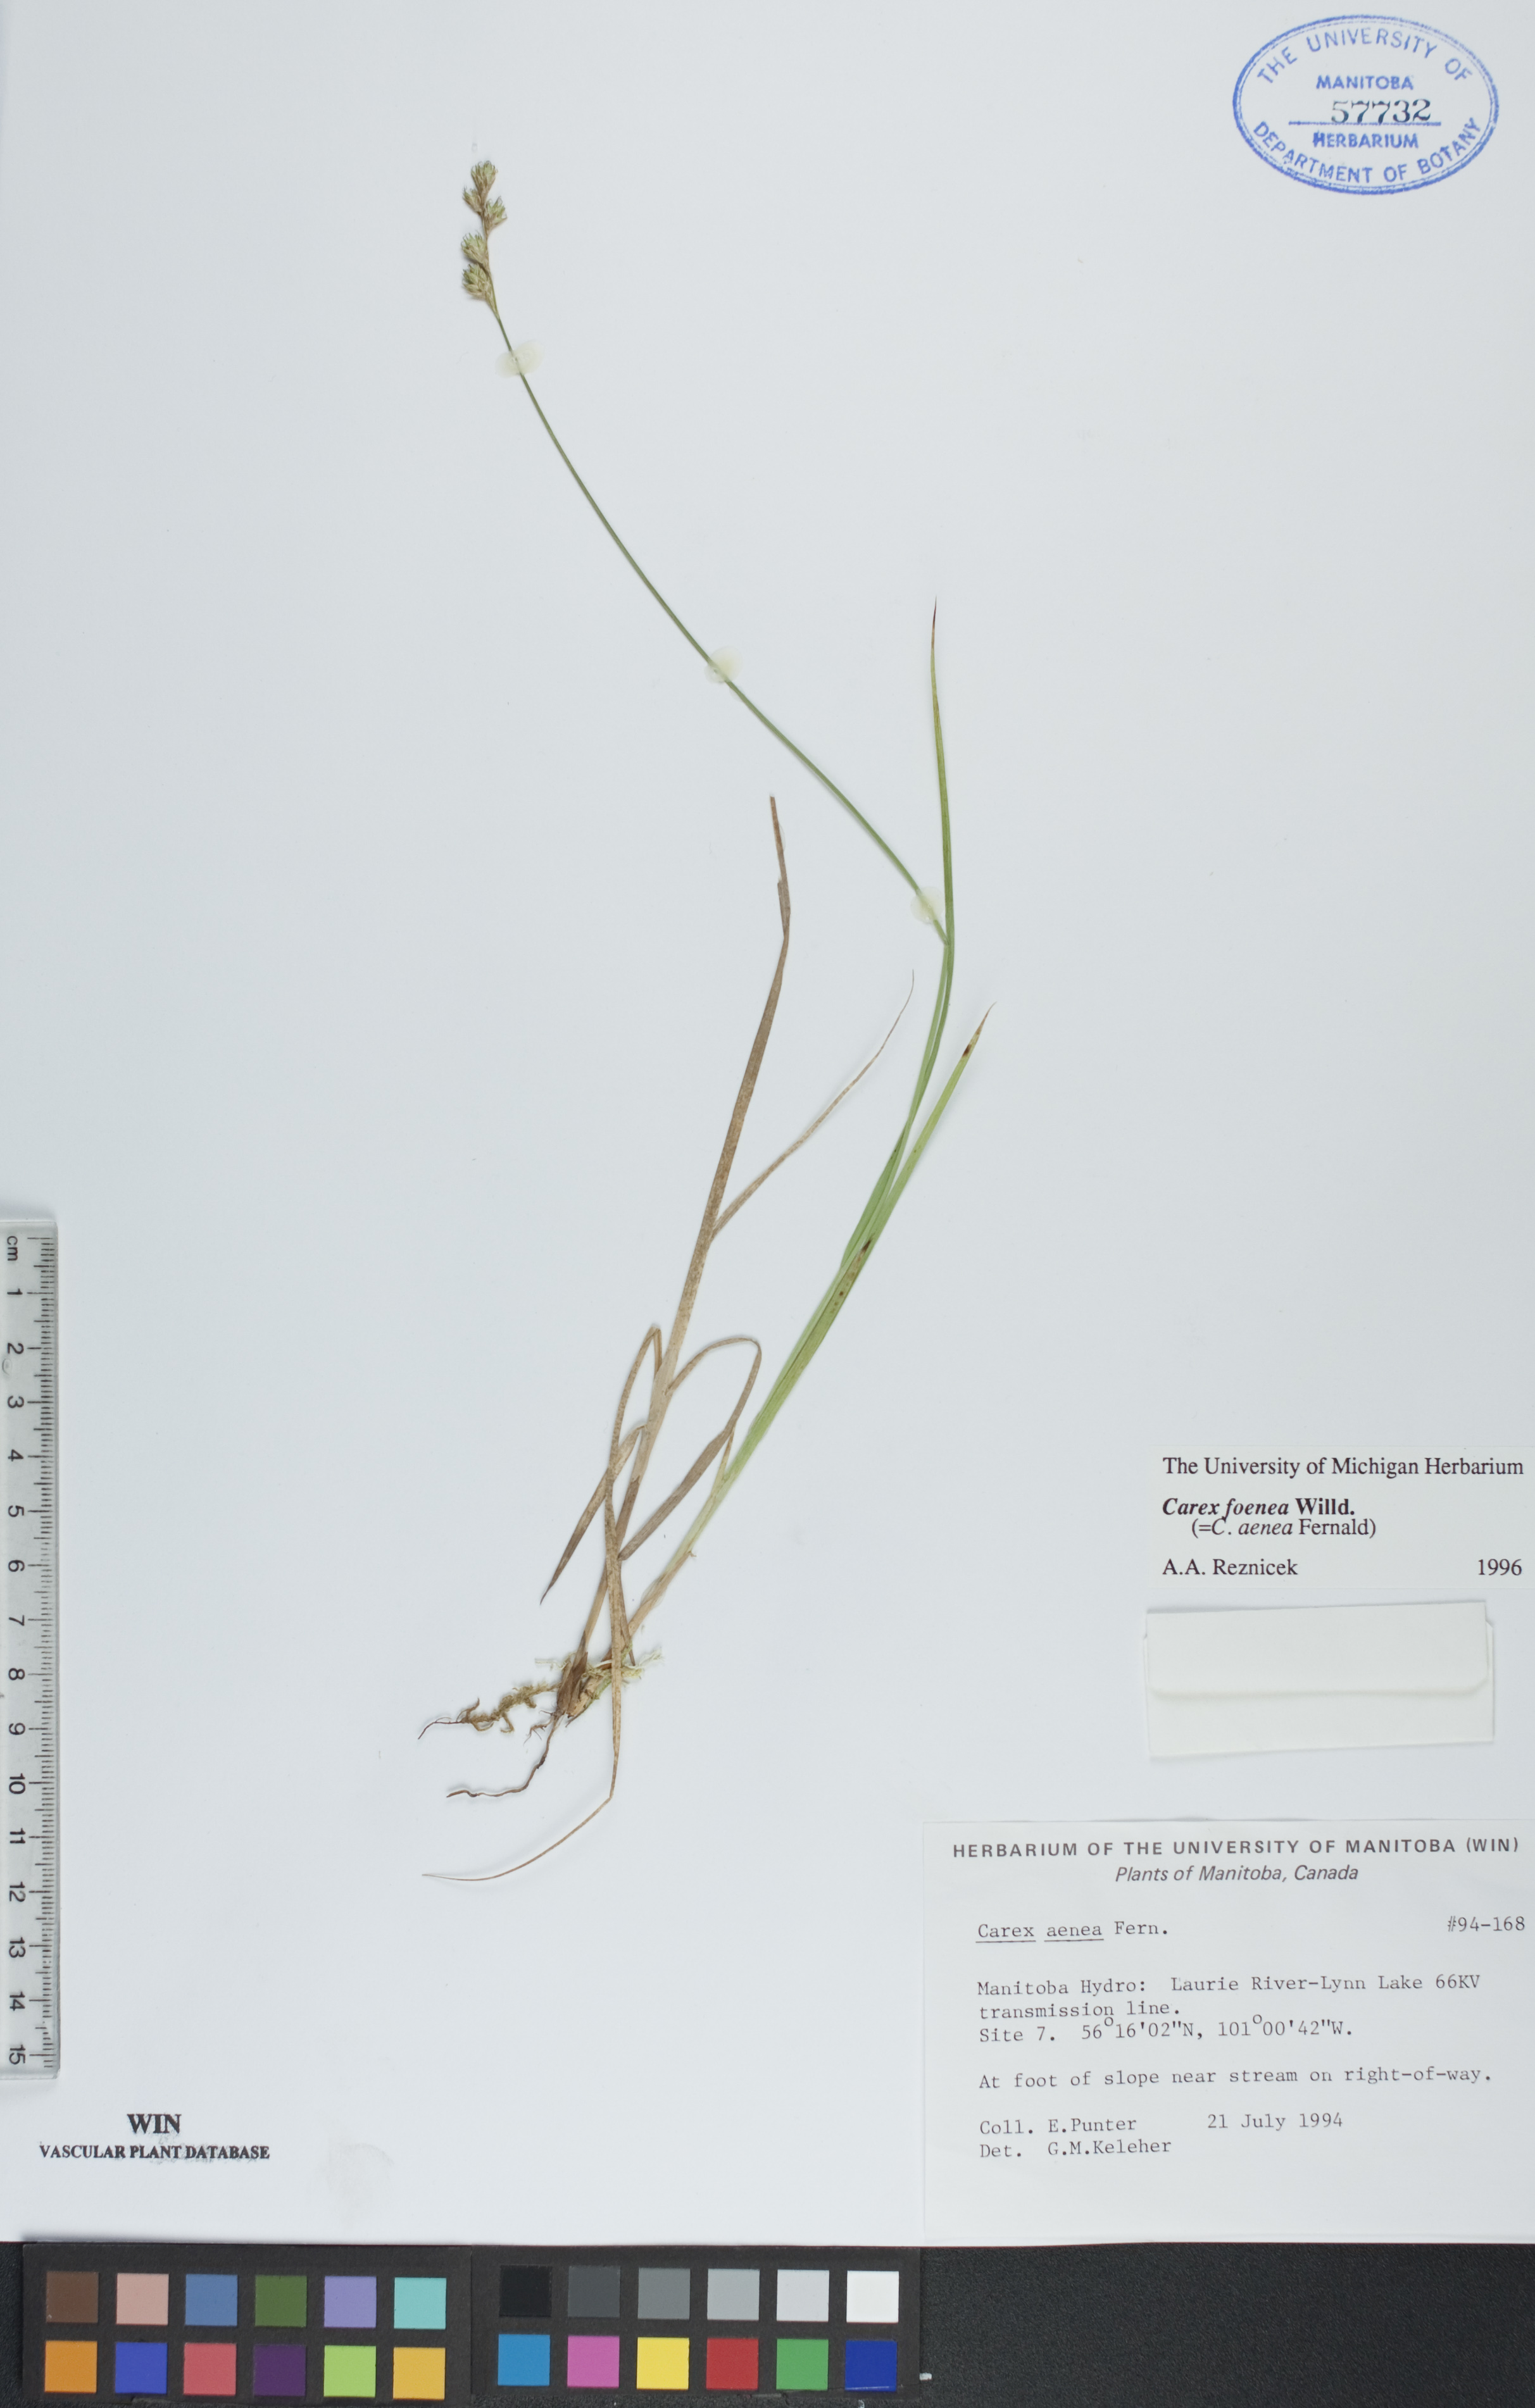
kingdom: Plantae
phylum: Tracheophyta
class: Liliopsida
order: Poales
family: Cyperaceae
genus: Carex
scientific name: Carex foenea
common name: Bronze sedge
